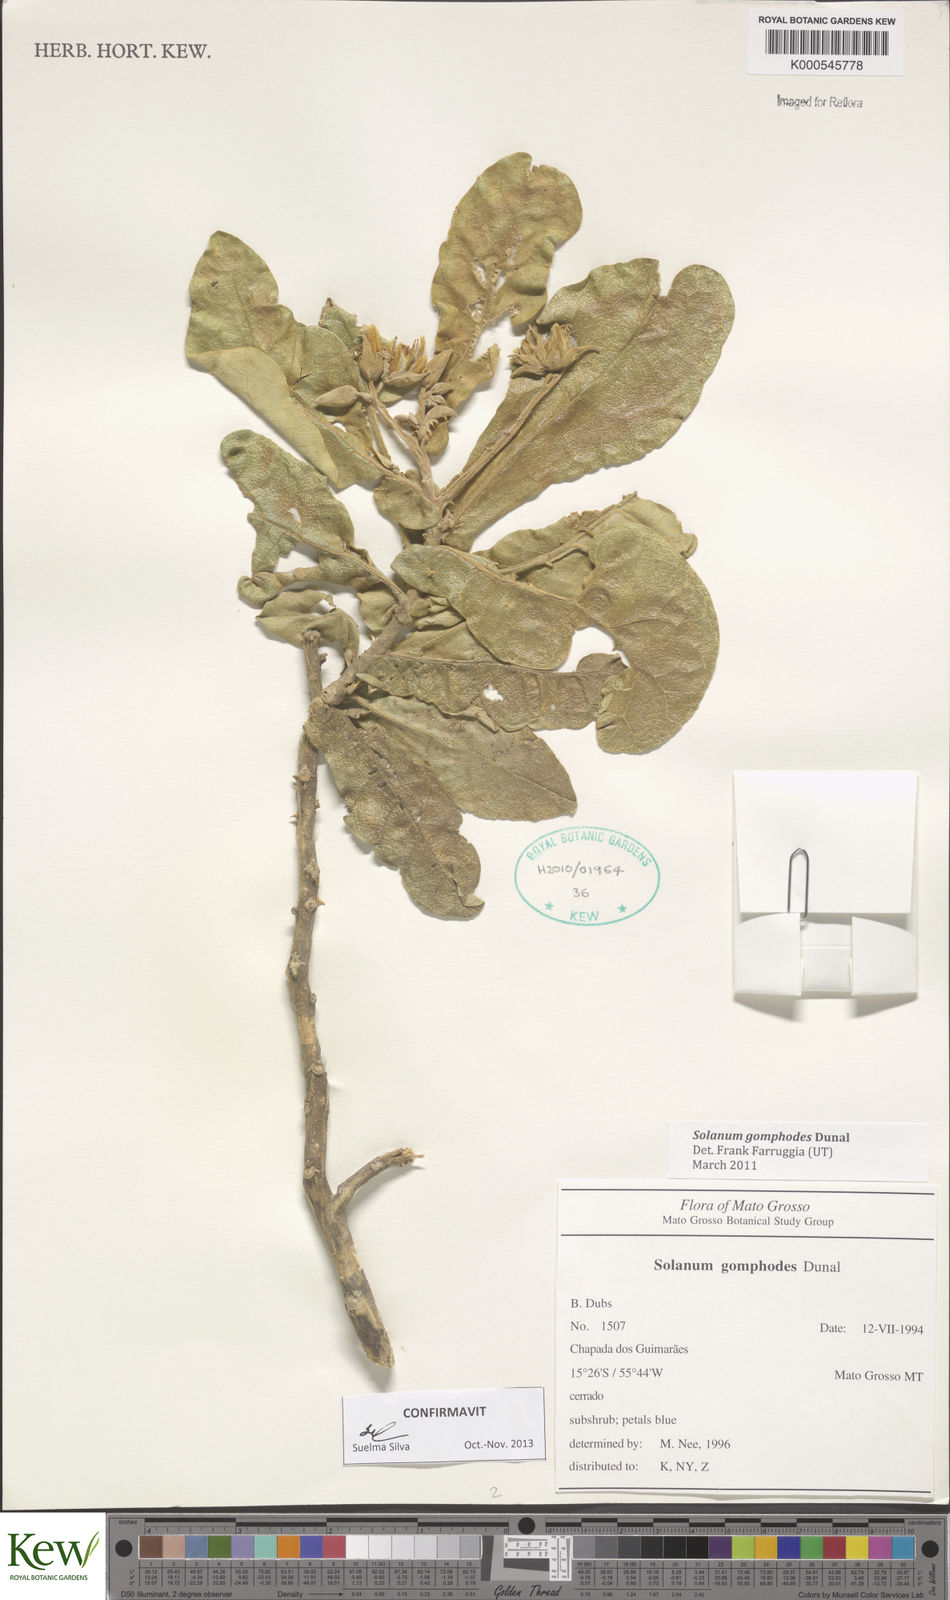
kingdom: Plantae
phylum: Tracheophyta
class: Magnoliopsida
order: Solanales
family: Solanaceae
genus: Solanum
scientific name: Solanum gomphodes
